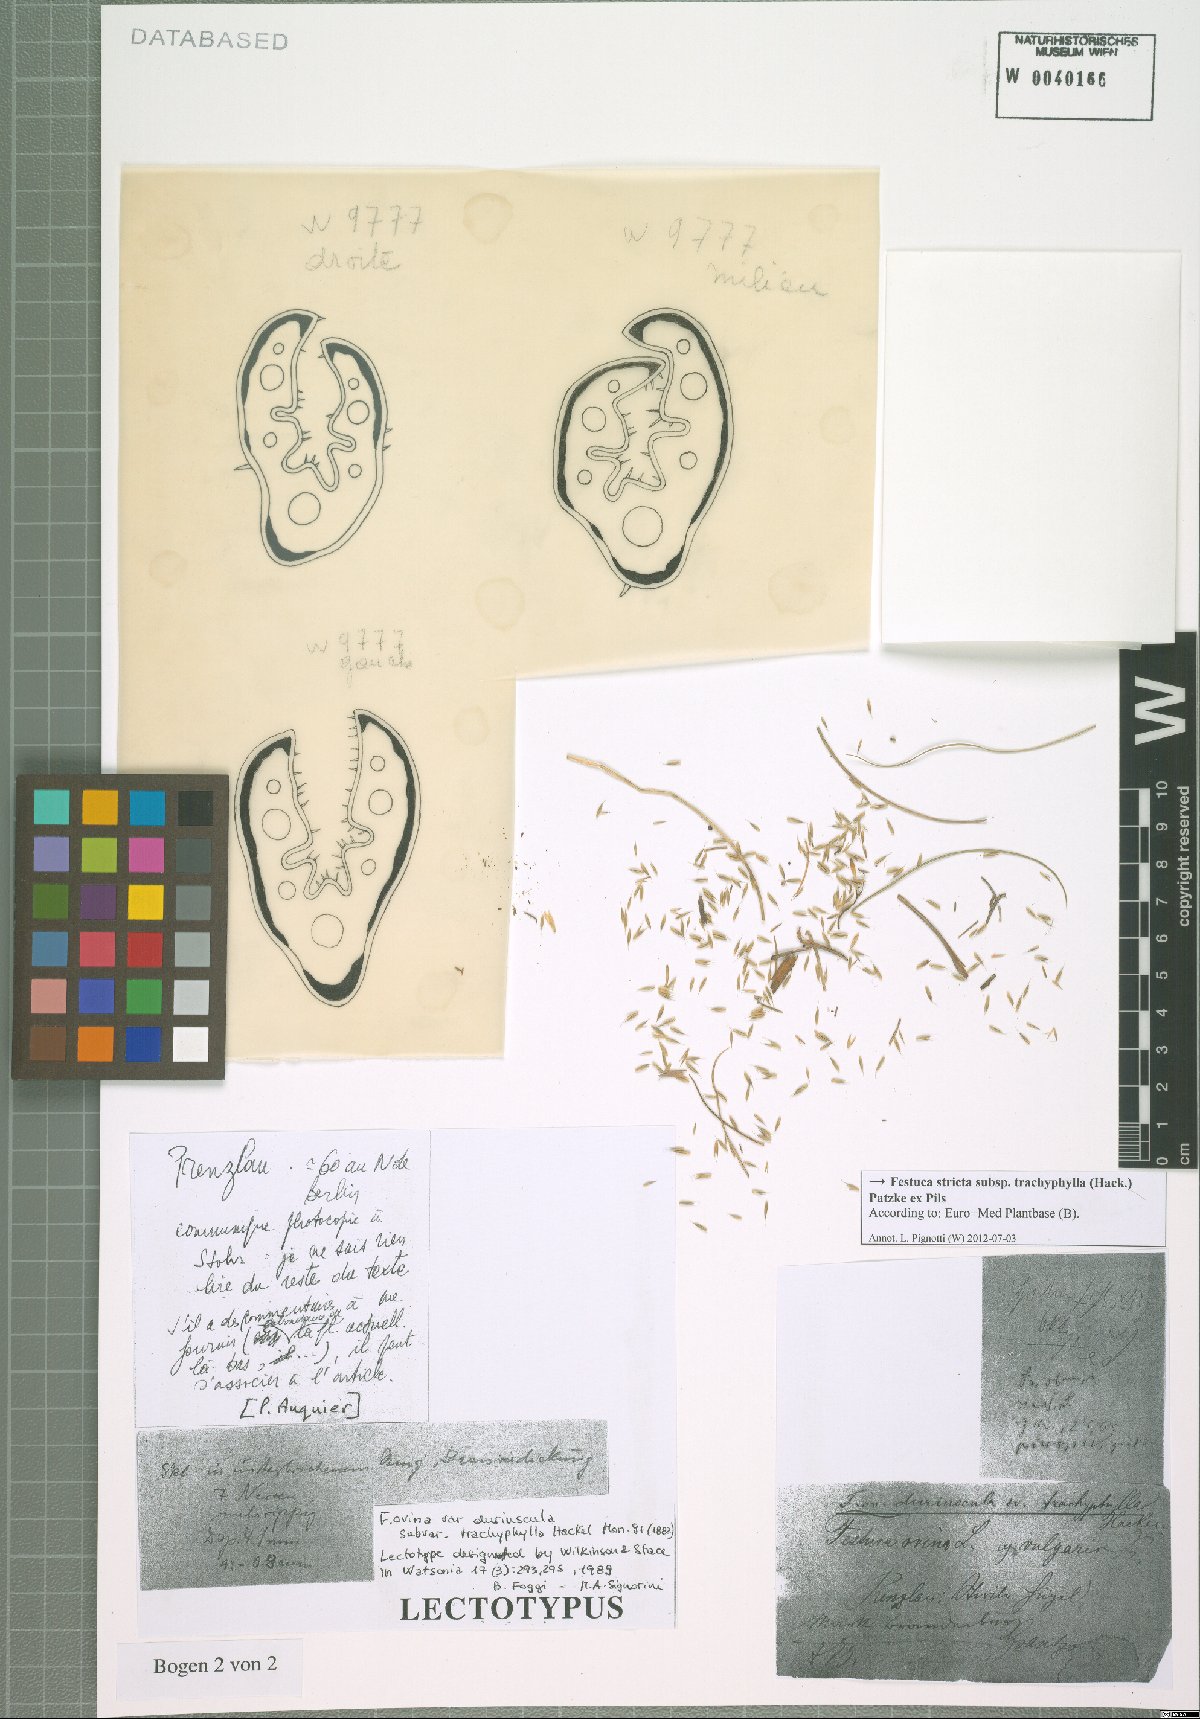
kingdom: Plantae
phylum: Tracheophyta
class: Liliopsida
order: Poales
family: Poaceae
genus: Festuca
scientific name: Festuca trachyphylla
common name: Hard fescue
